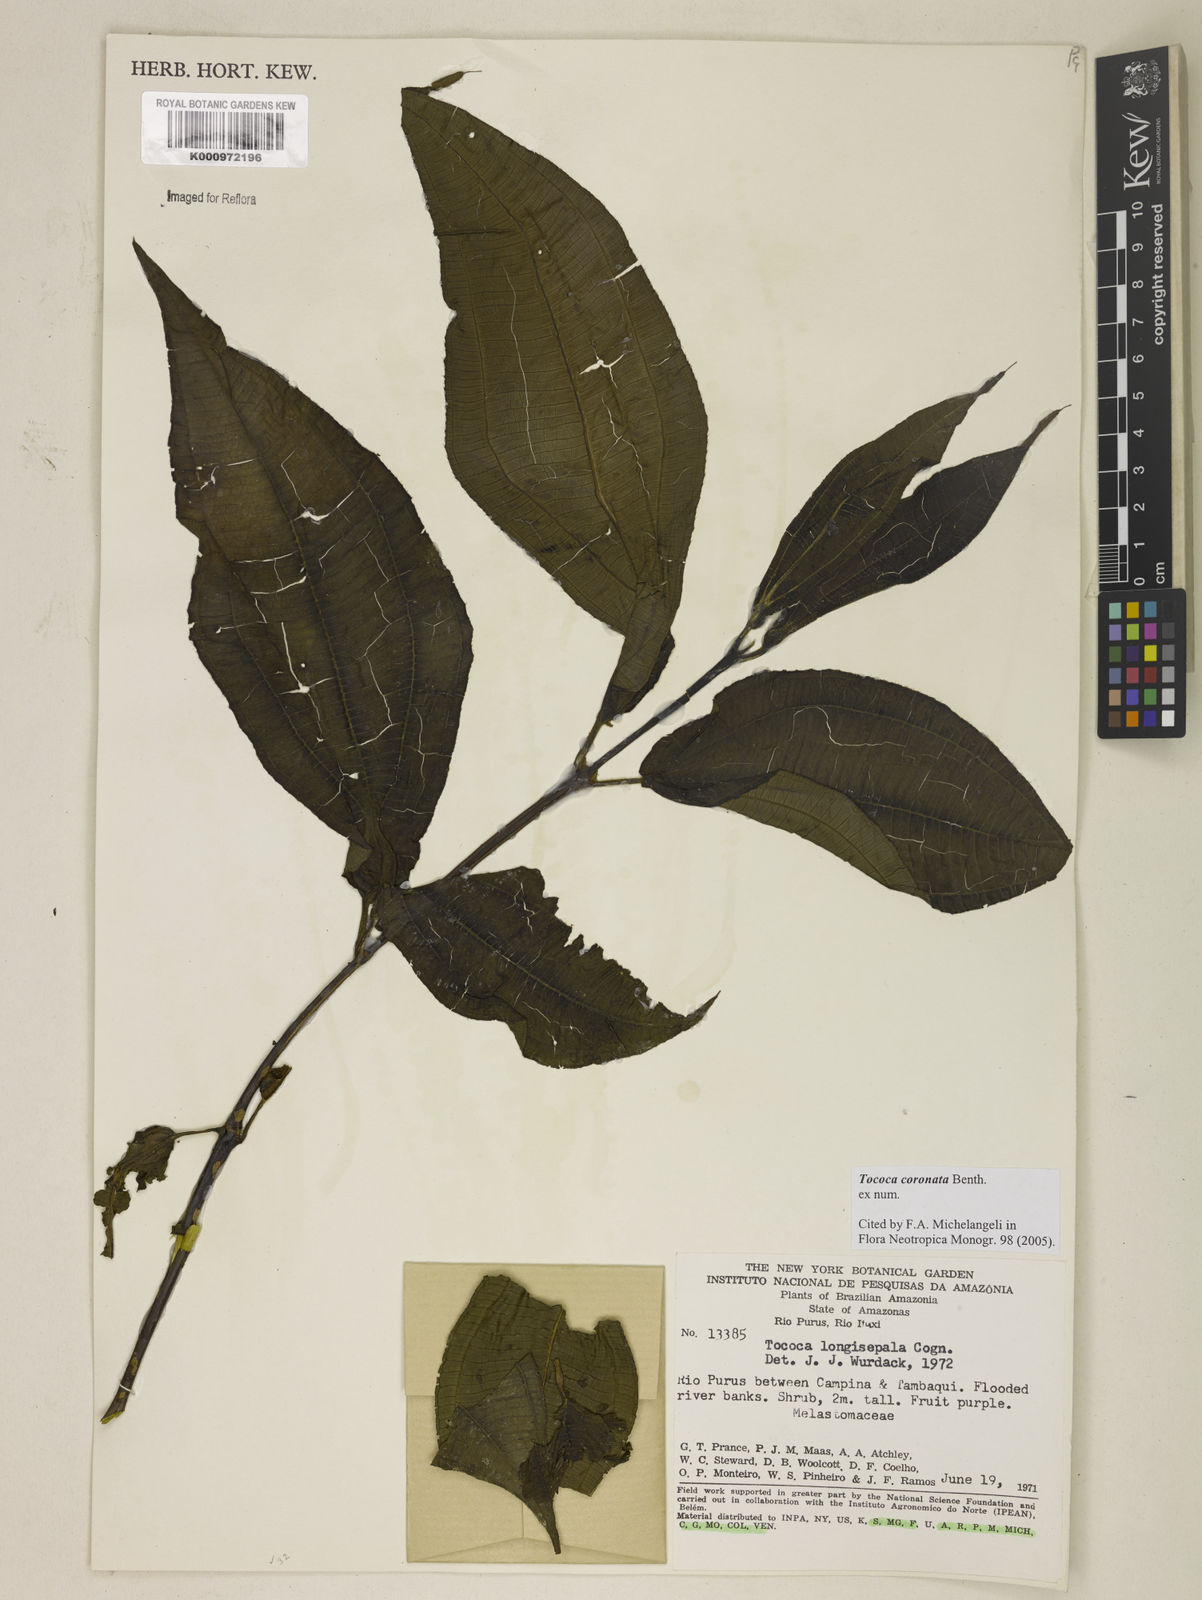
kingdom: Plantae
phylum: Tracheophyta
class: Magnoliopsida
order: Myrtales
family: Melastomataceae
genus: Miconia
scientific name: Miconia tococoronata
